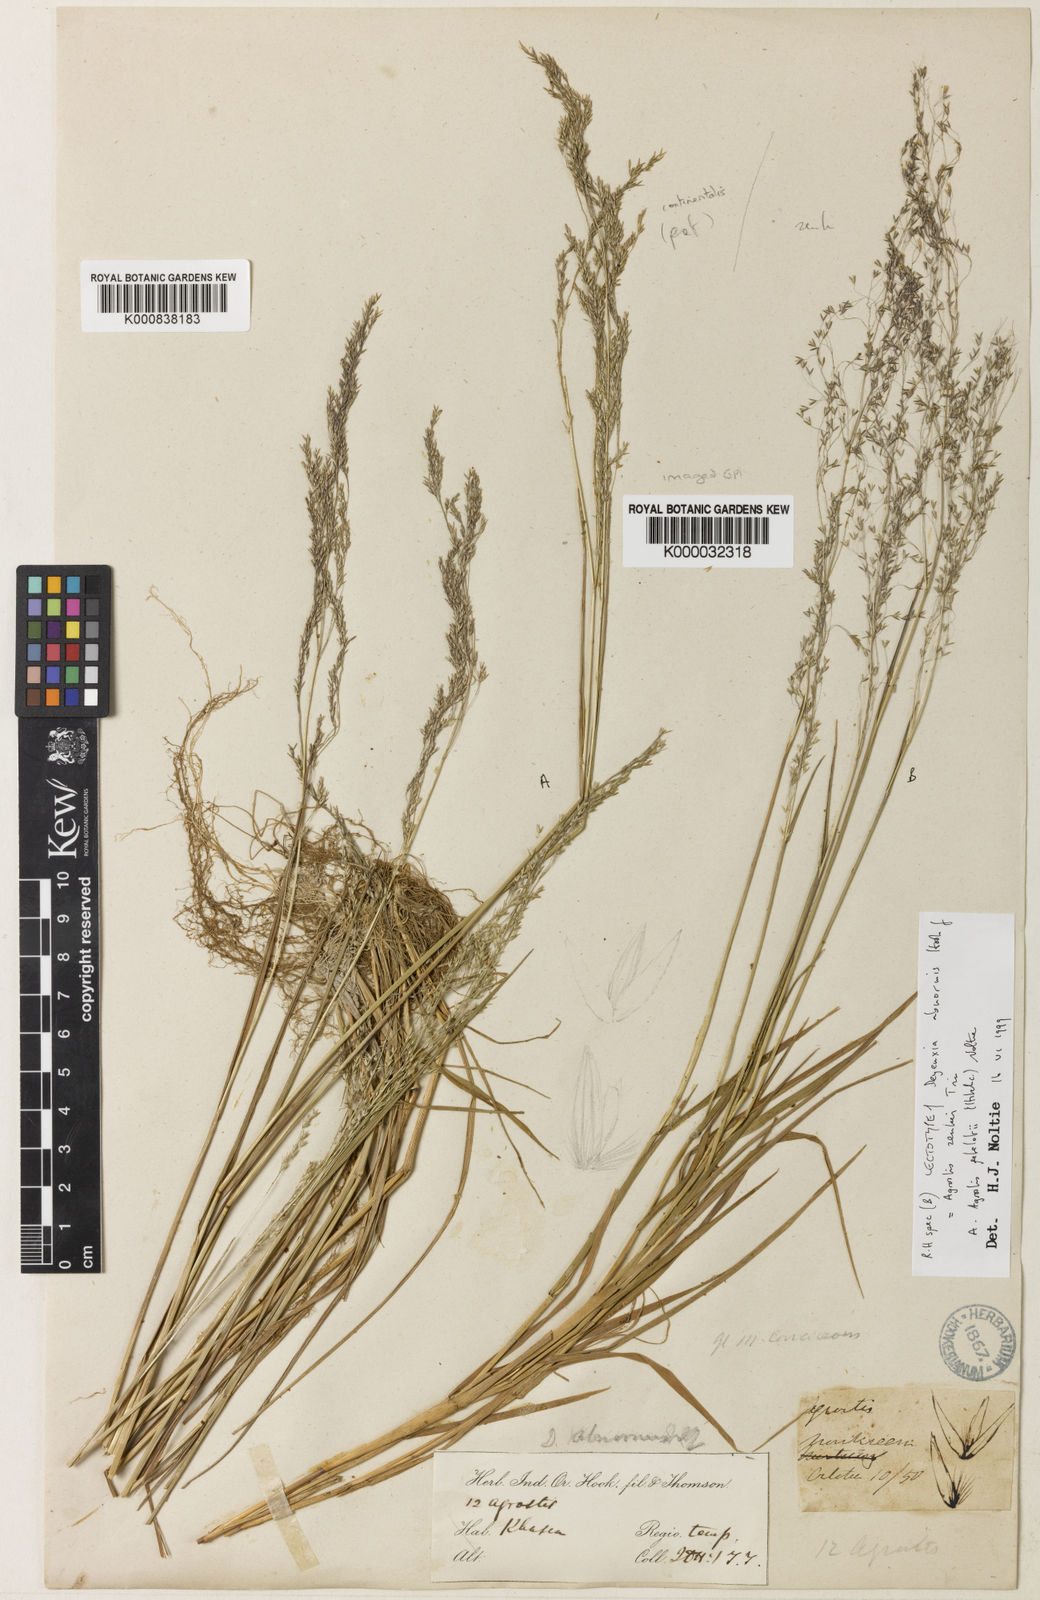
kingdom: Plantae
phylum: Tracheophyta
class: Liliopsida
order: Poales
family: Poaceae
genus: Calamagrostis
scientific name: Calamagrostis abnormis
